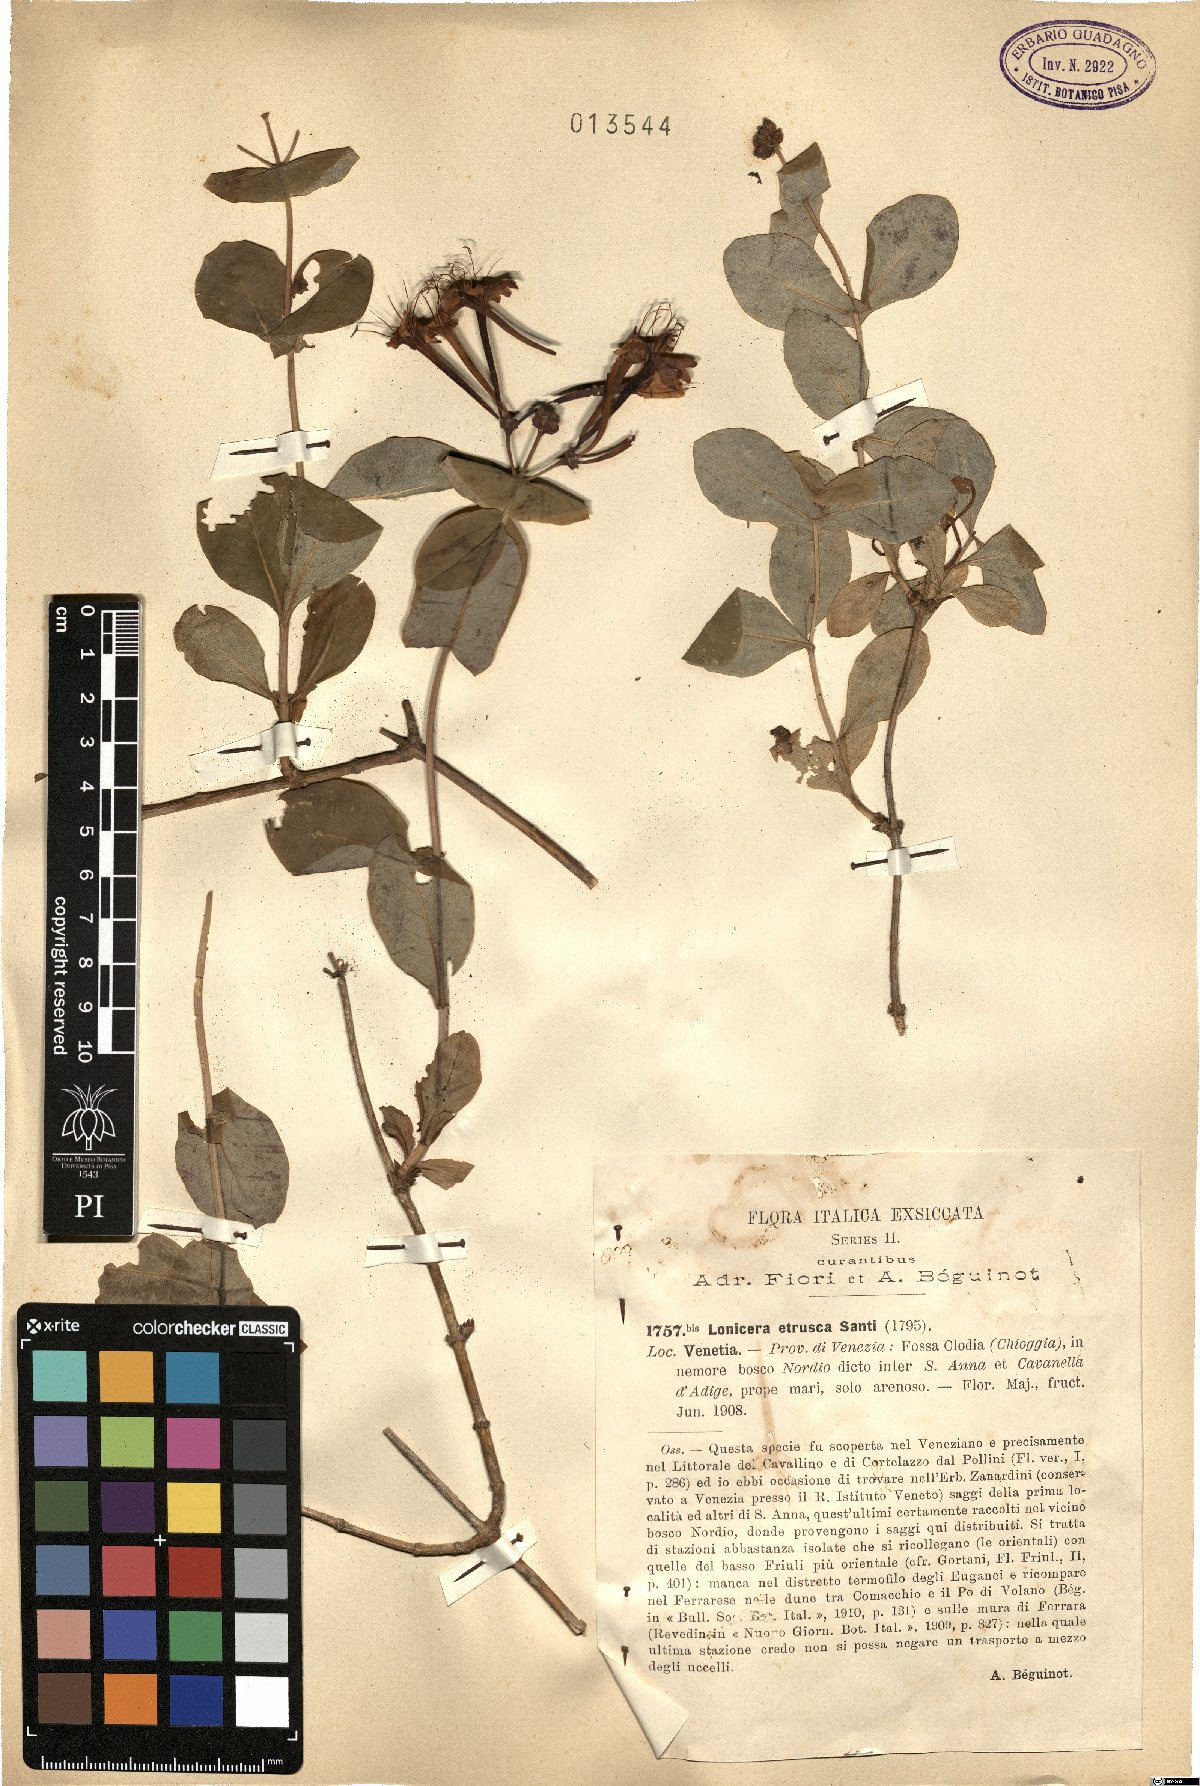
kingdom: Plantae
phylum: Tracheophyta
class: Magnoliopsida
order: Dipsacales
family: Caprifoliaceae
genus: Lonicera
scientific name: Lonicera etrusca
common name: Etruscan honeysuckle
